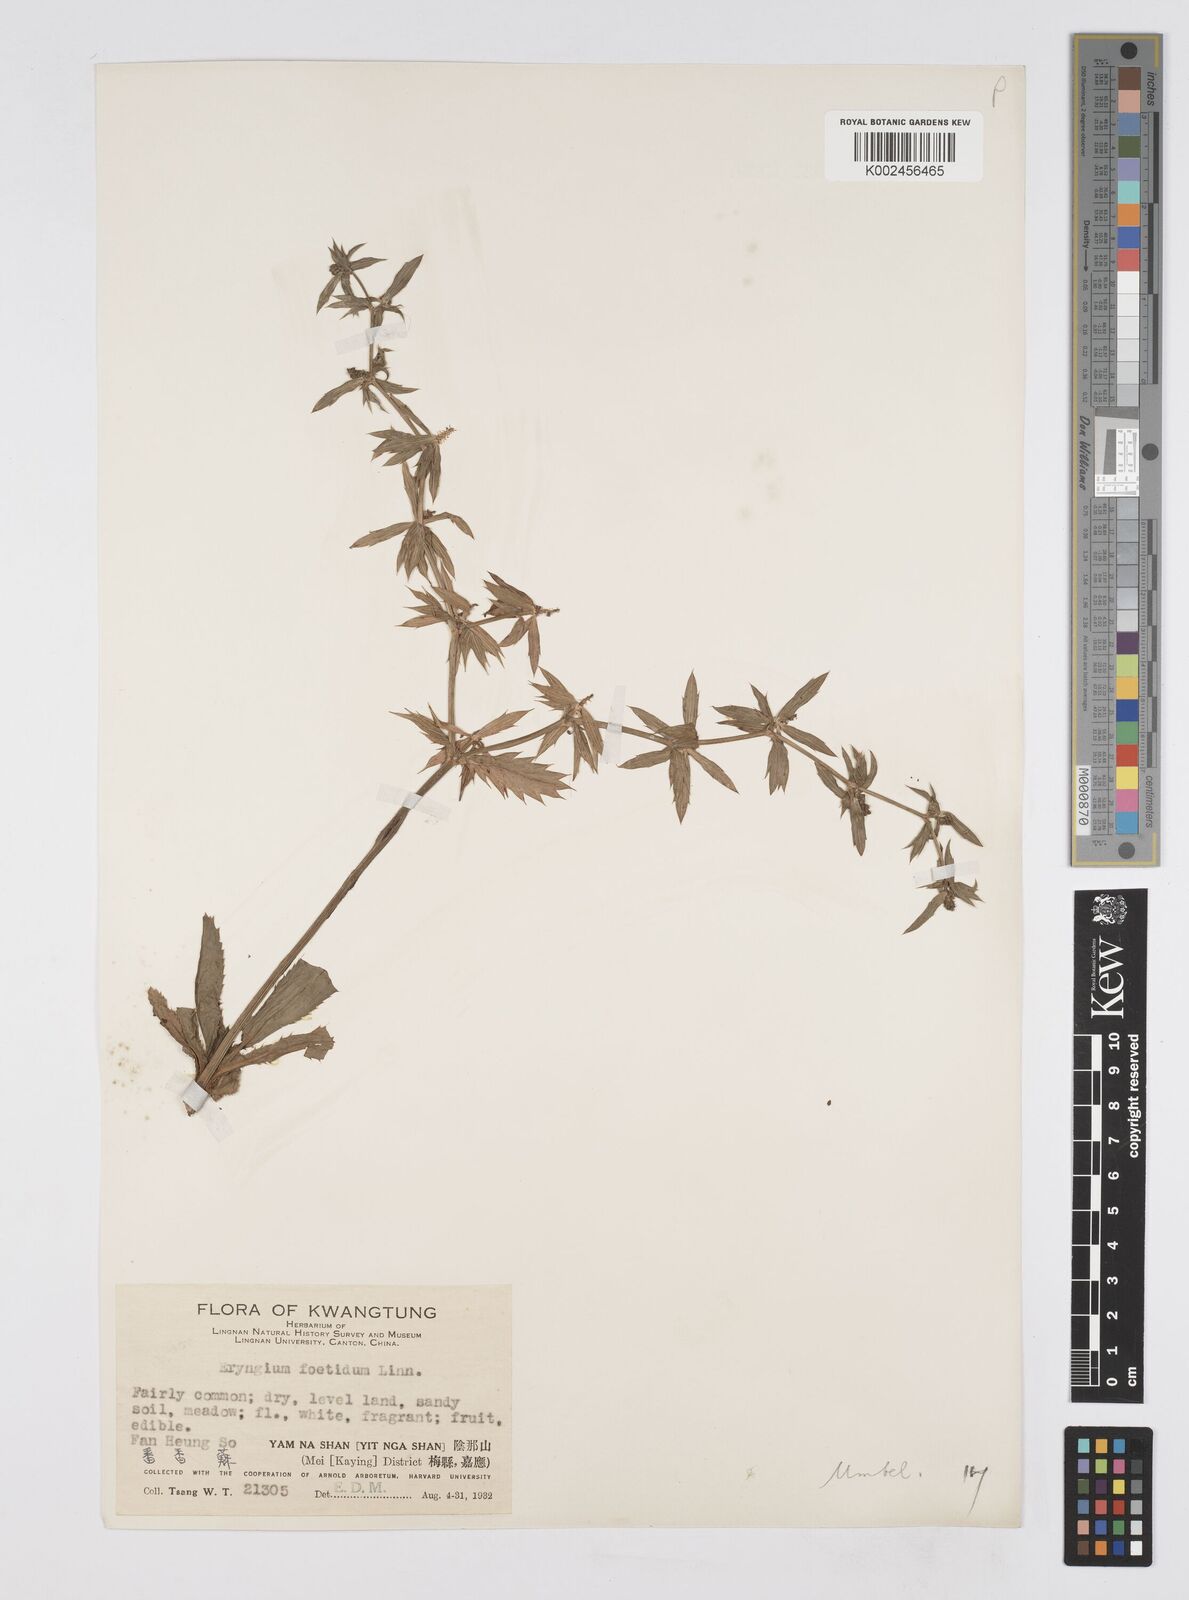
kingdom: Plantae
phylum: Tracheophyta
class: Magnoliopsida
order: Apiales
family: Apiaceae
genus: Eryngium
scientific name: Eryngium foetidum
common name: Fitweed
